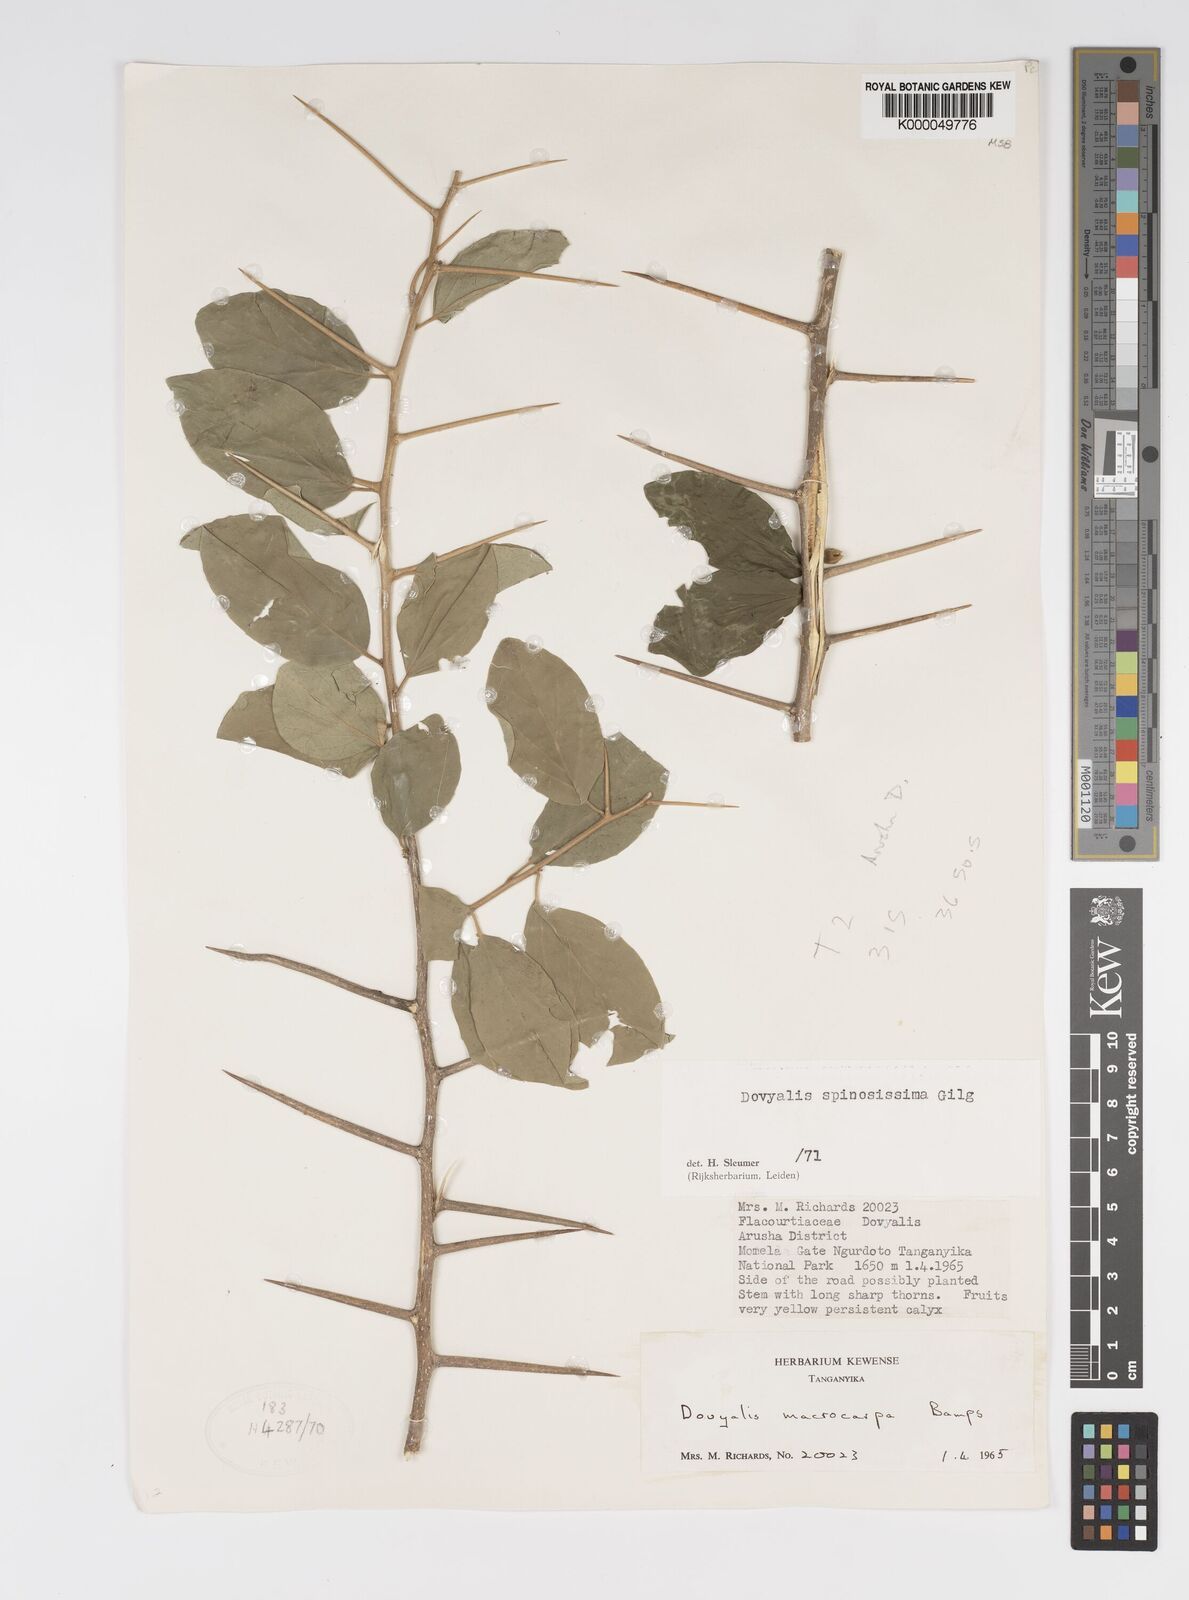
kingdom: Plantae
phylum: Tracheophyta
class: Magnoliopsida
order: Malpighiales
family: Salicaceae
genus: Dovyalis
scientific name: Dovyalis spinosissima
